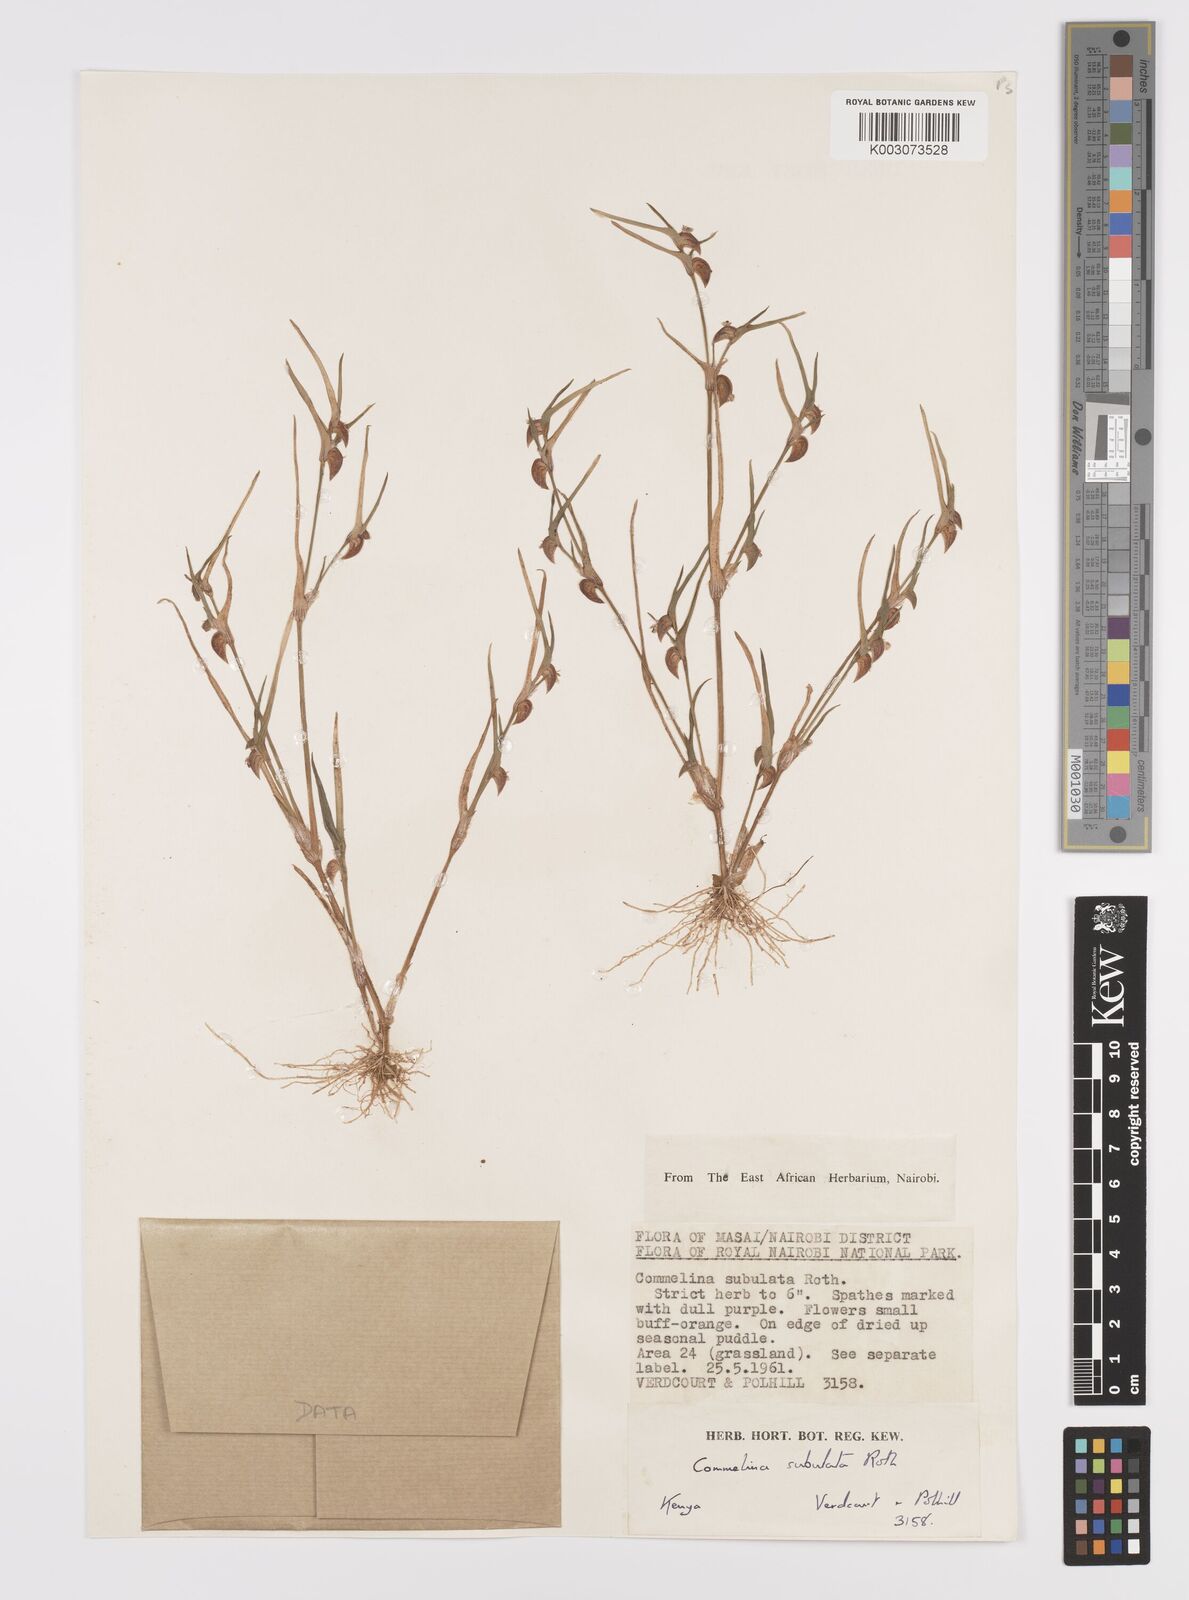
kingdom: Plantae
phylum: Tracheophyta
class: Liliopsida
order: Commelinales
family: Commelinaceae
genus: Commelina
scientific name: Commelina subulata
